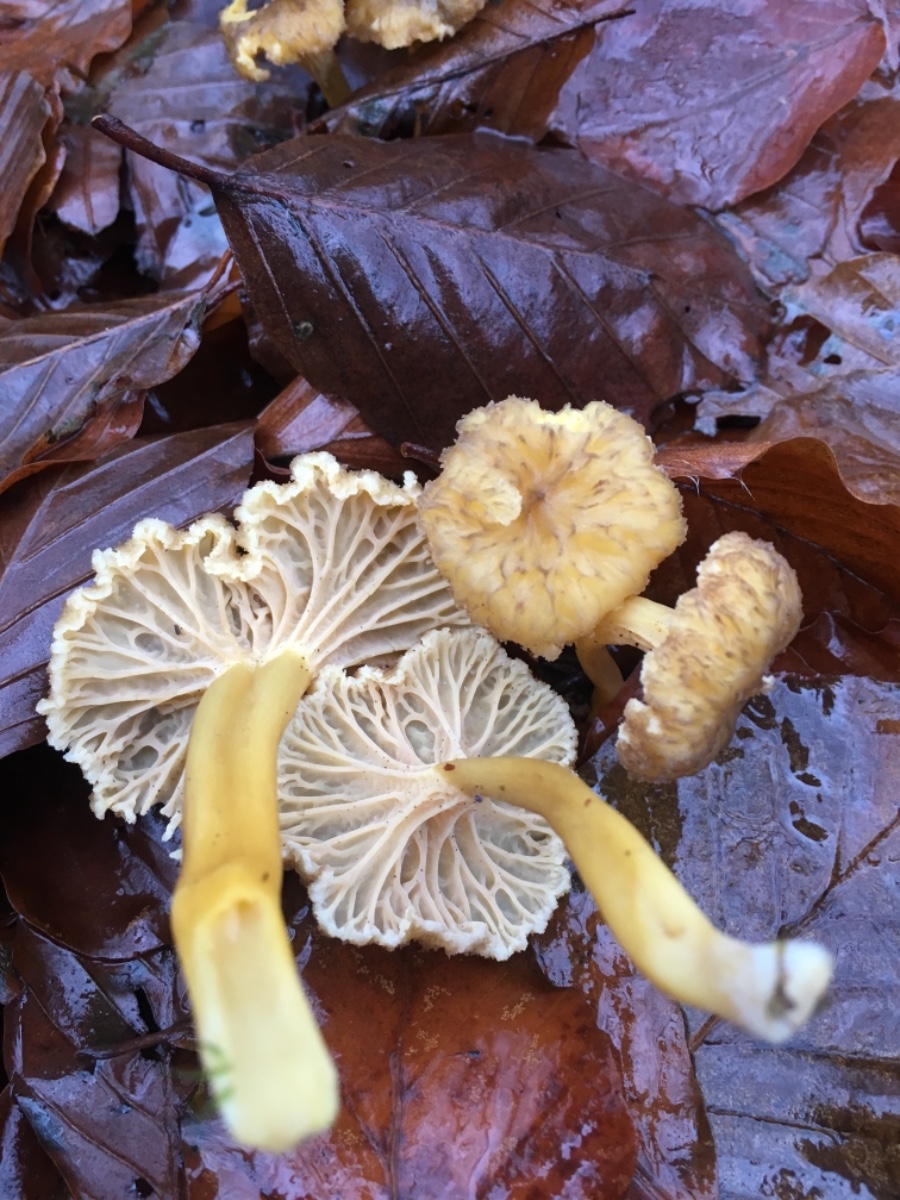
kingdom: Fungi
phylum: Basidiomycota
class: Agaricomycetes
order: Cantharellales
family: Hydnaceae
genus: Craterellus
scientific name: Craterellus tubaeformis
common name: tragt-kantarel
